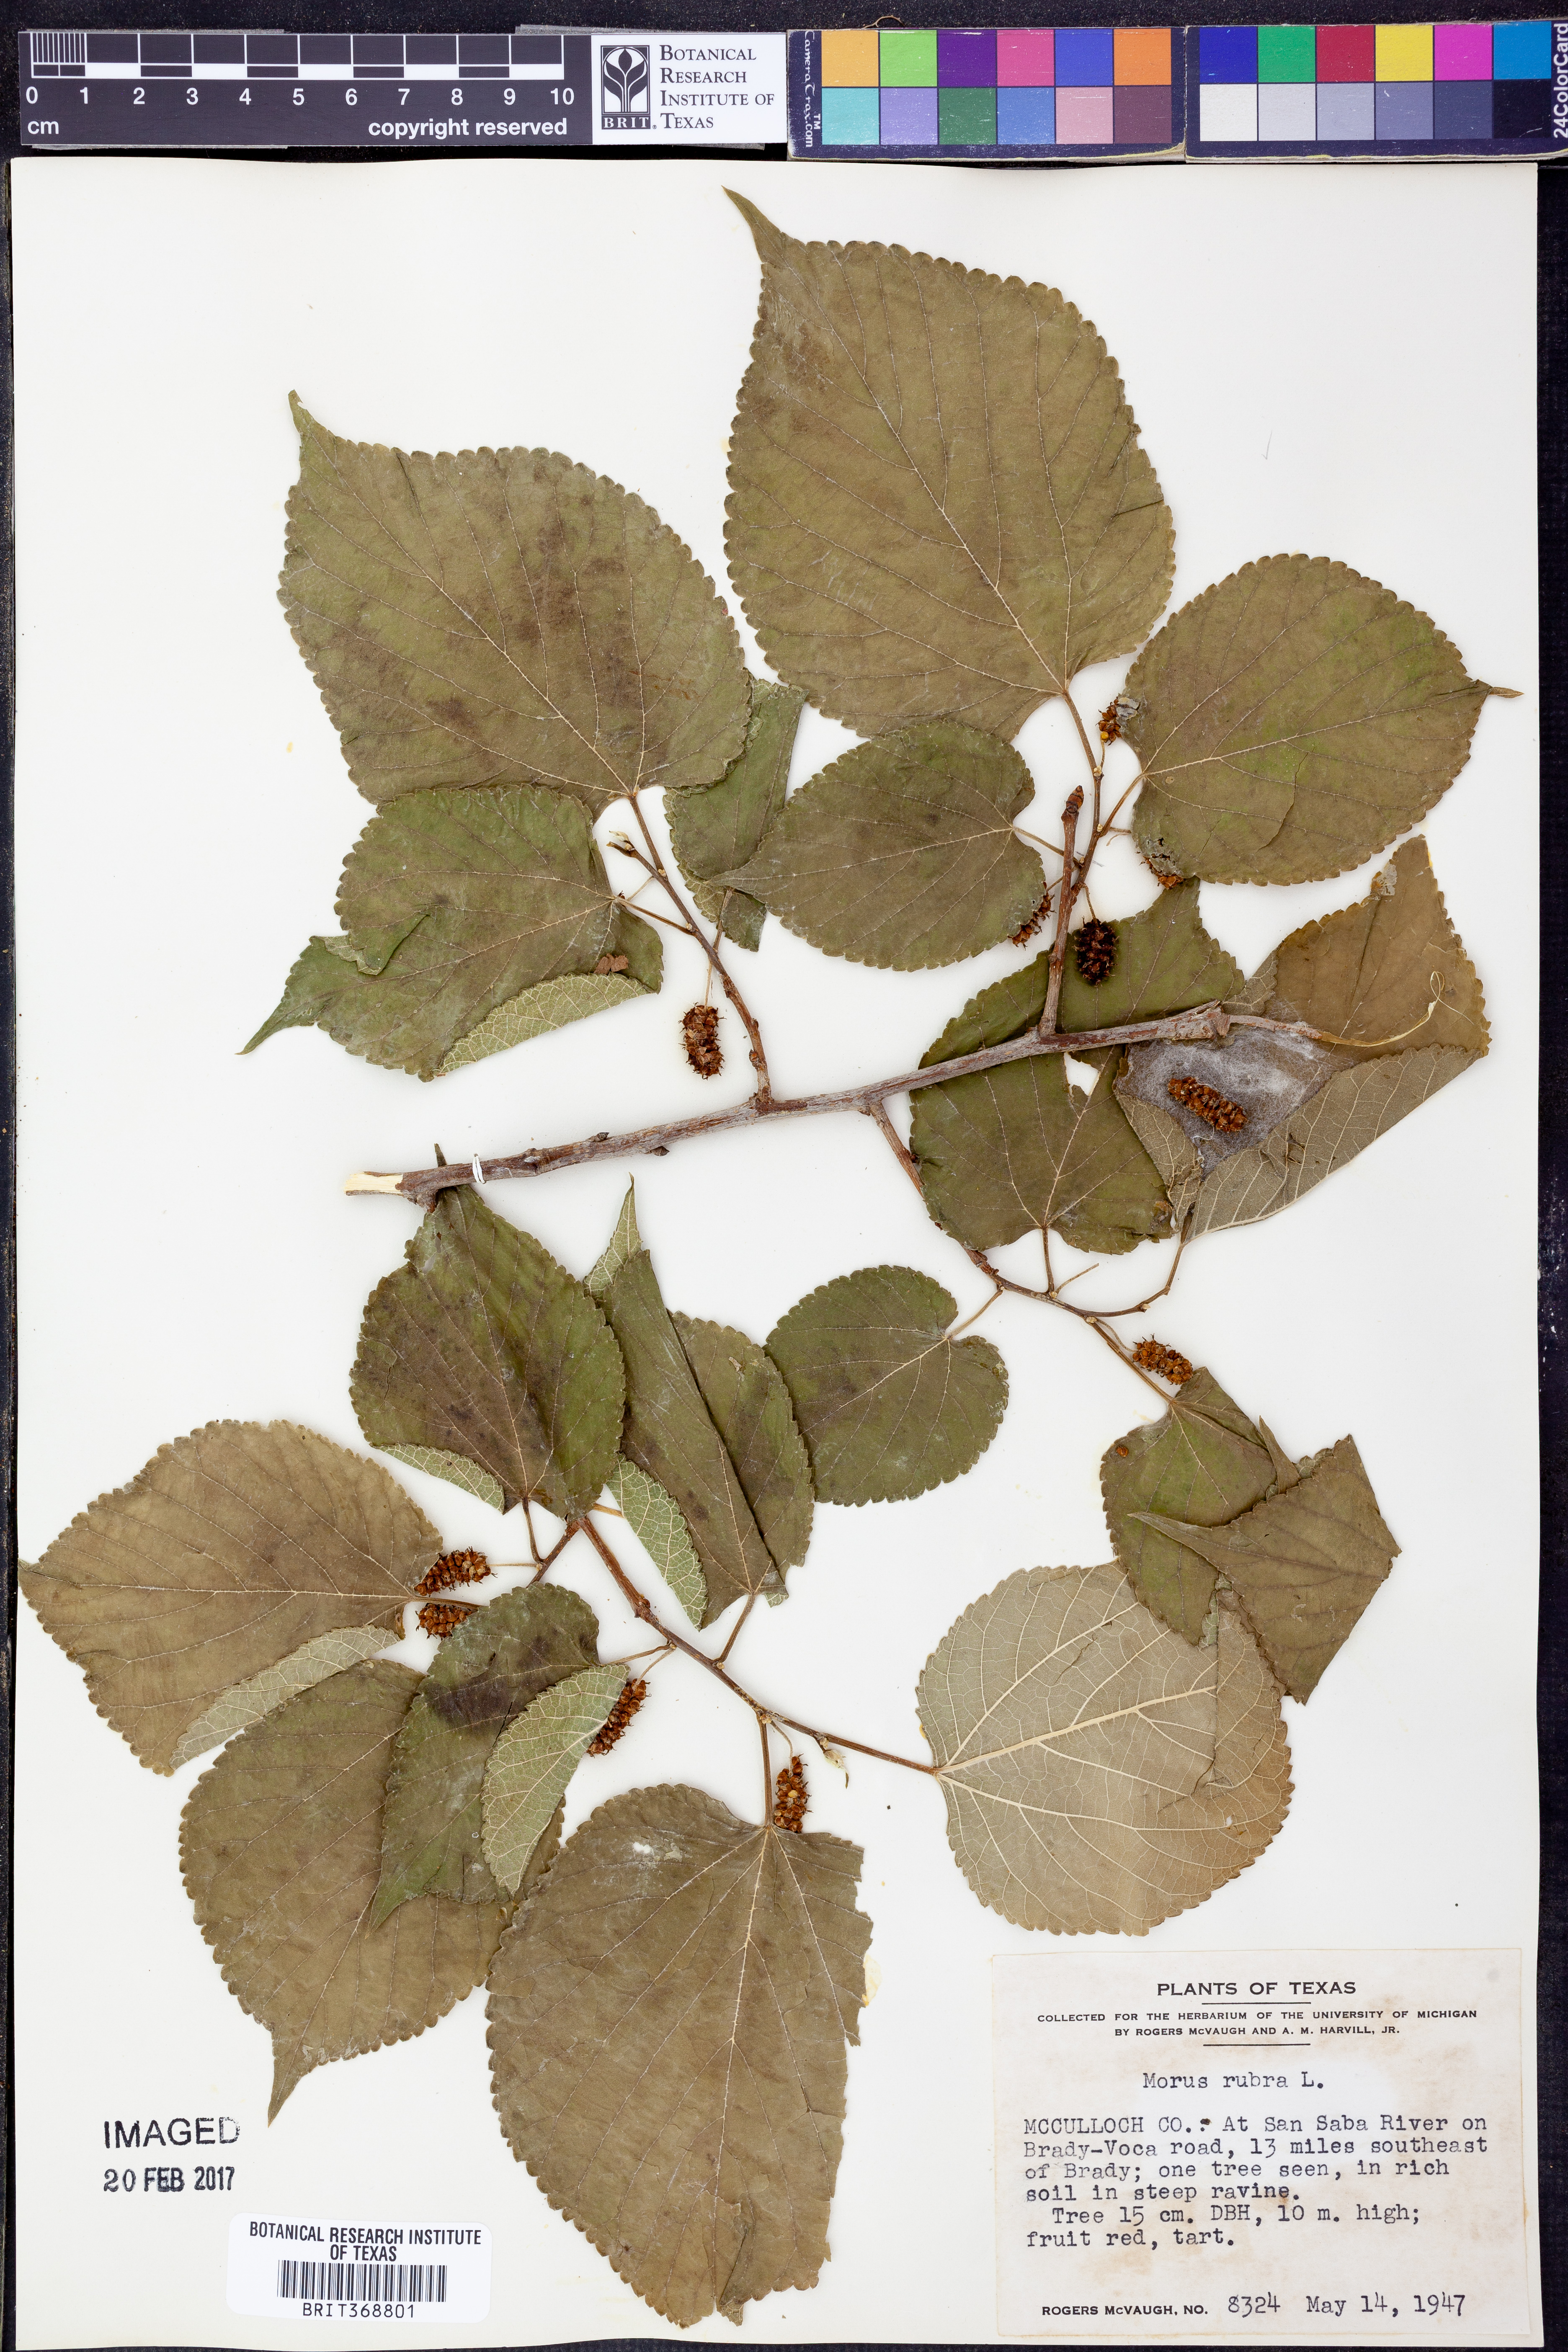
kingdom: Plantae
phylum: Tracheophyta
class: Magnoliopsida
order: Rosales
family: Moraceae
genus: Morus
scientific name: Morus rubra
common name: Red mulberry
